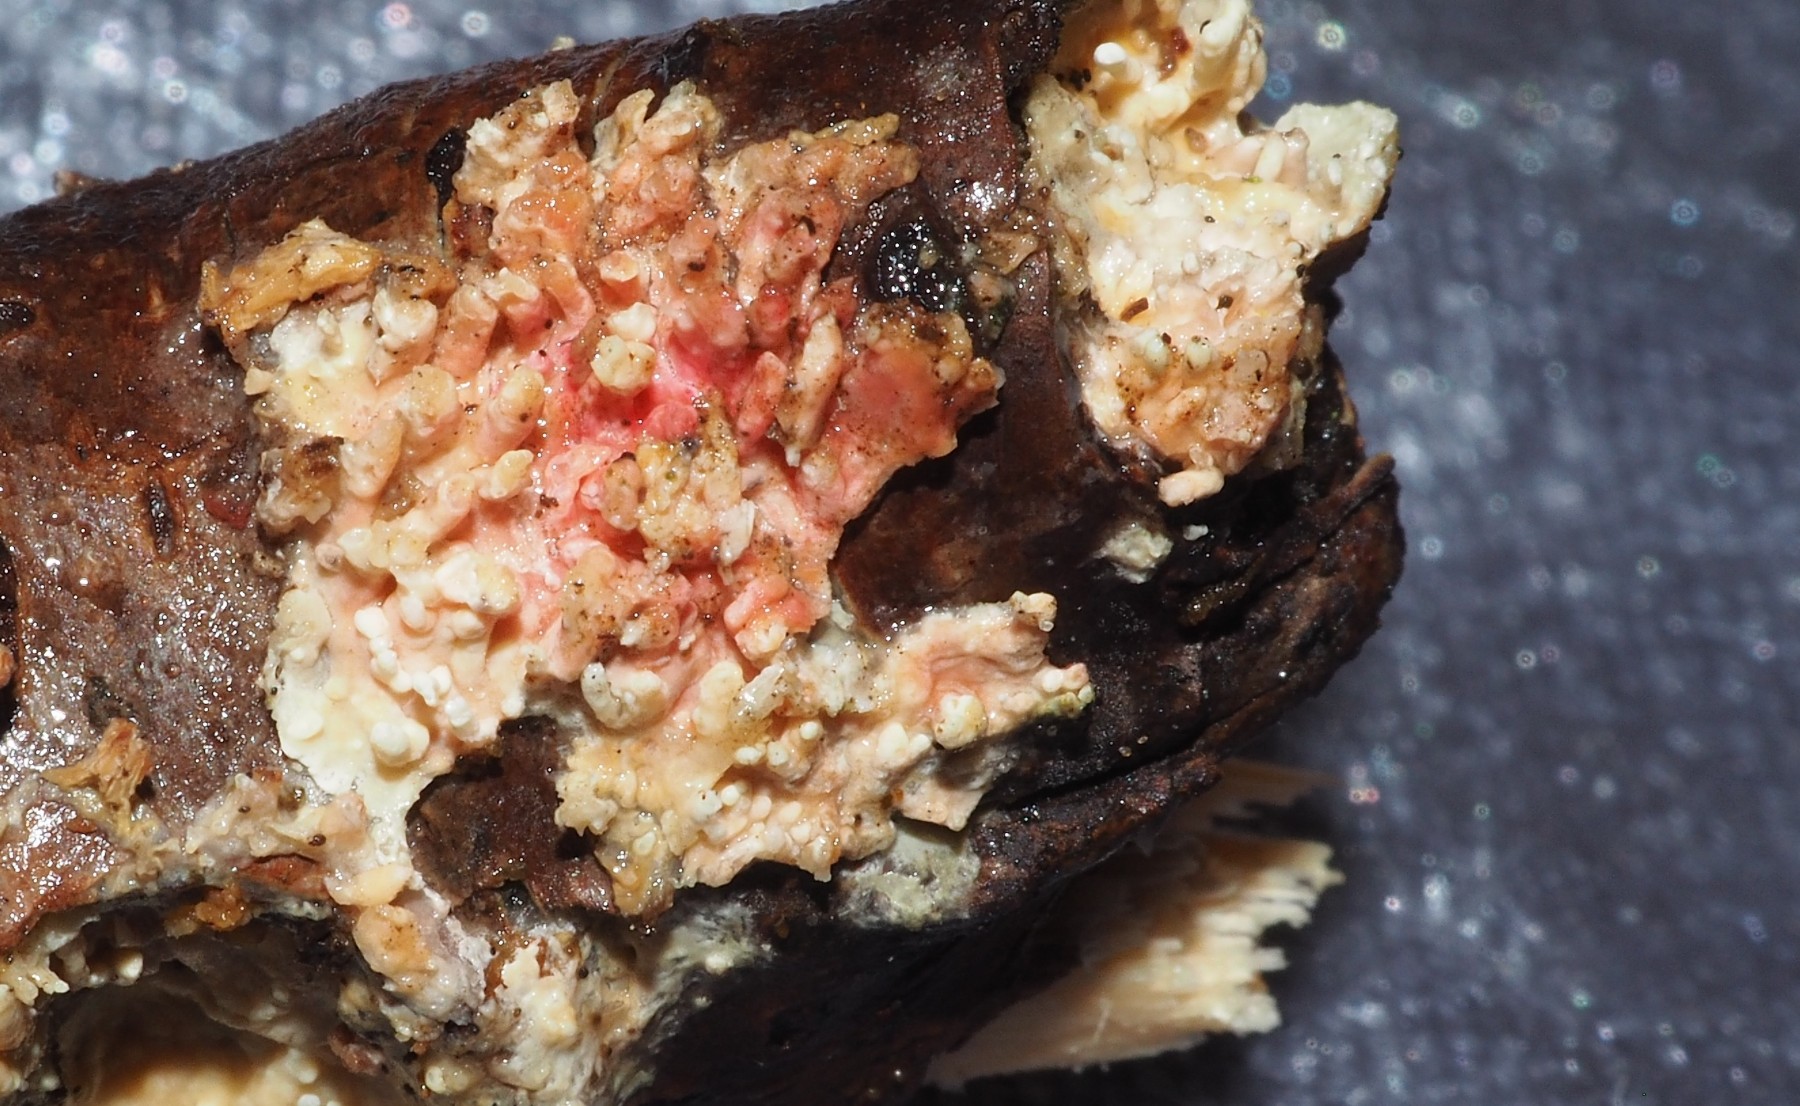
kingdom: Fungi
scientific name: Fungi
